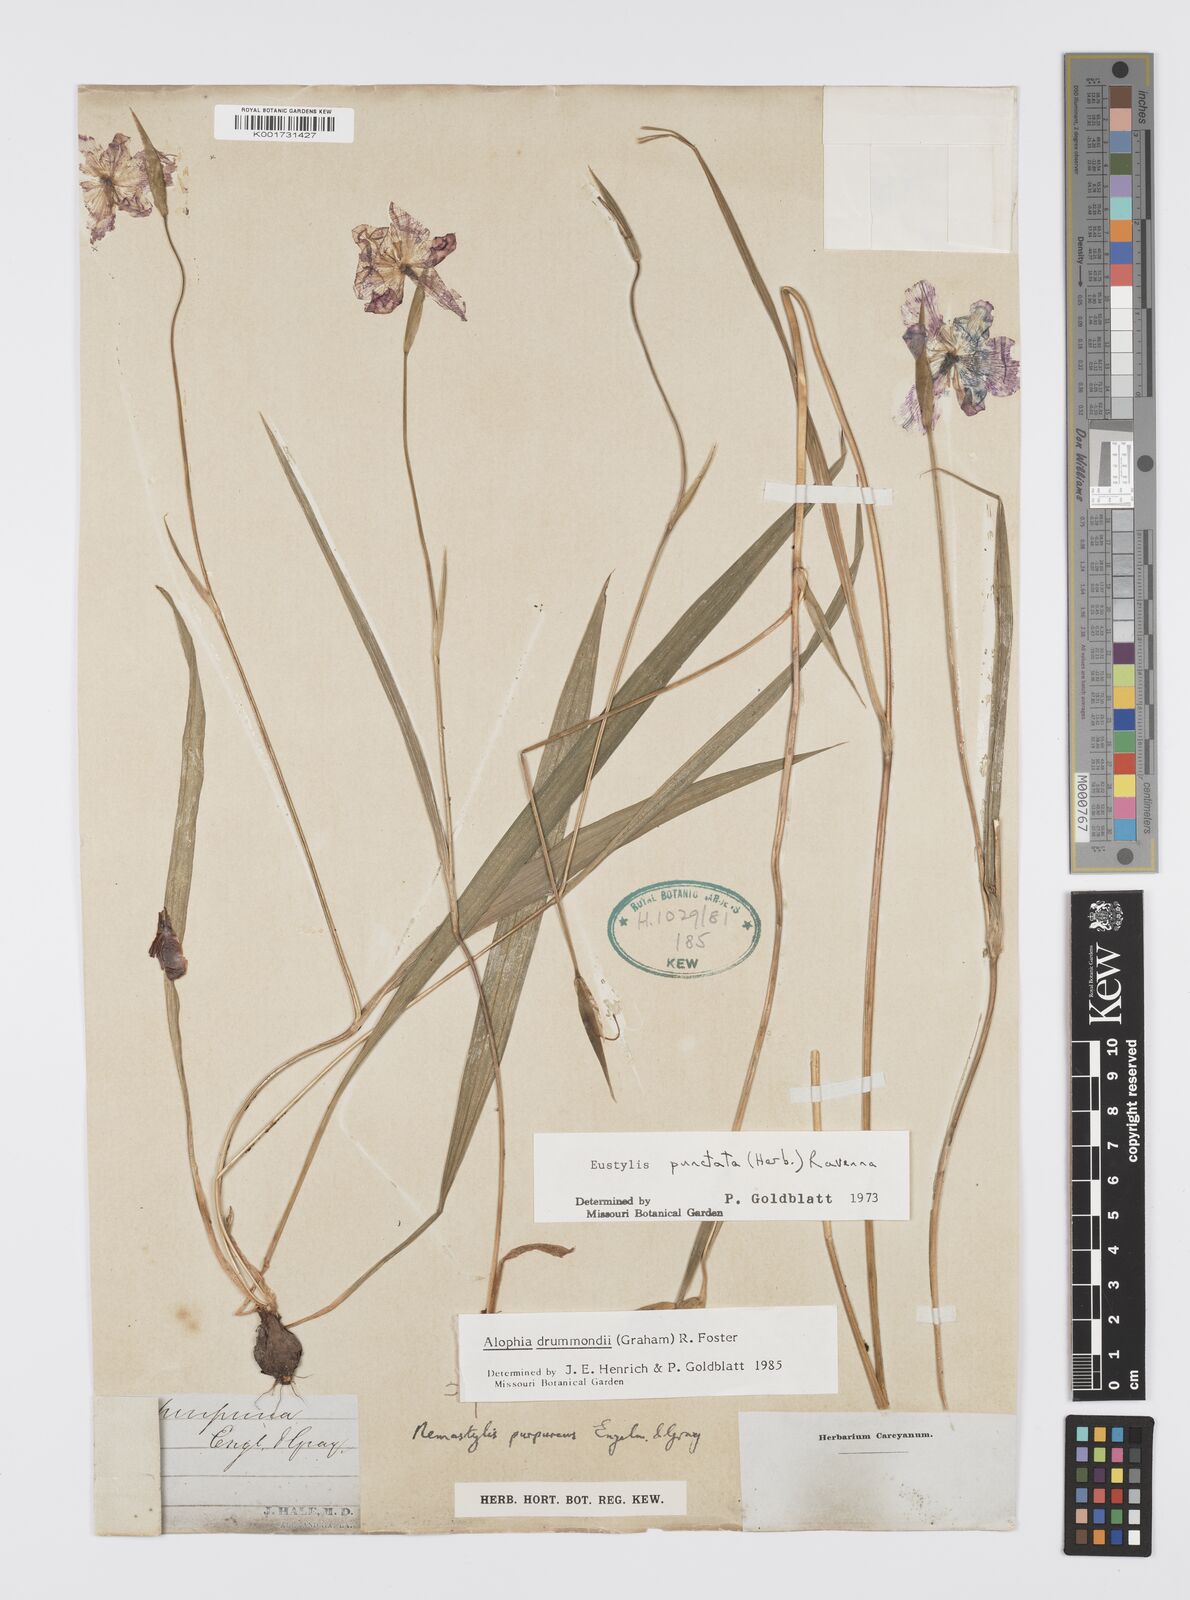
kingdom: Plantae
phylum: Tracheophyta
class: Liliopsida
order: Asparagales
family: Iridaceae
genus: Alophia
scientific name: Alophia drummondii
